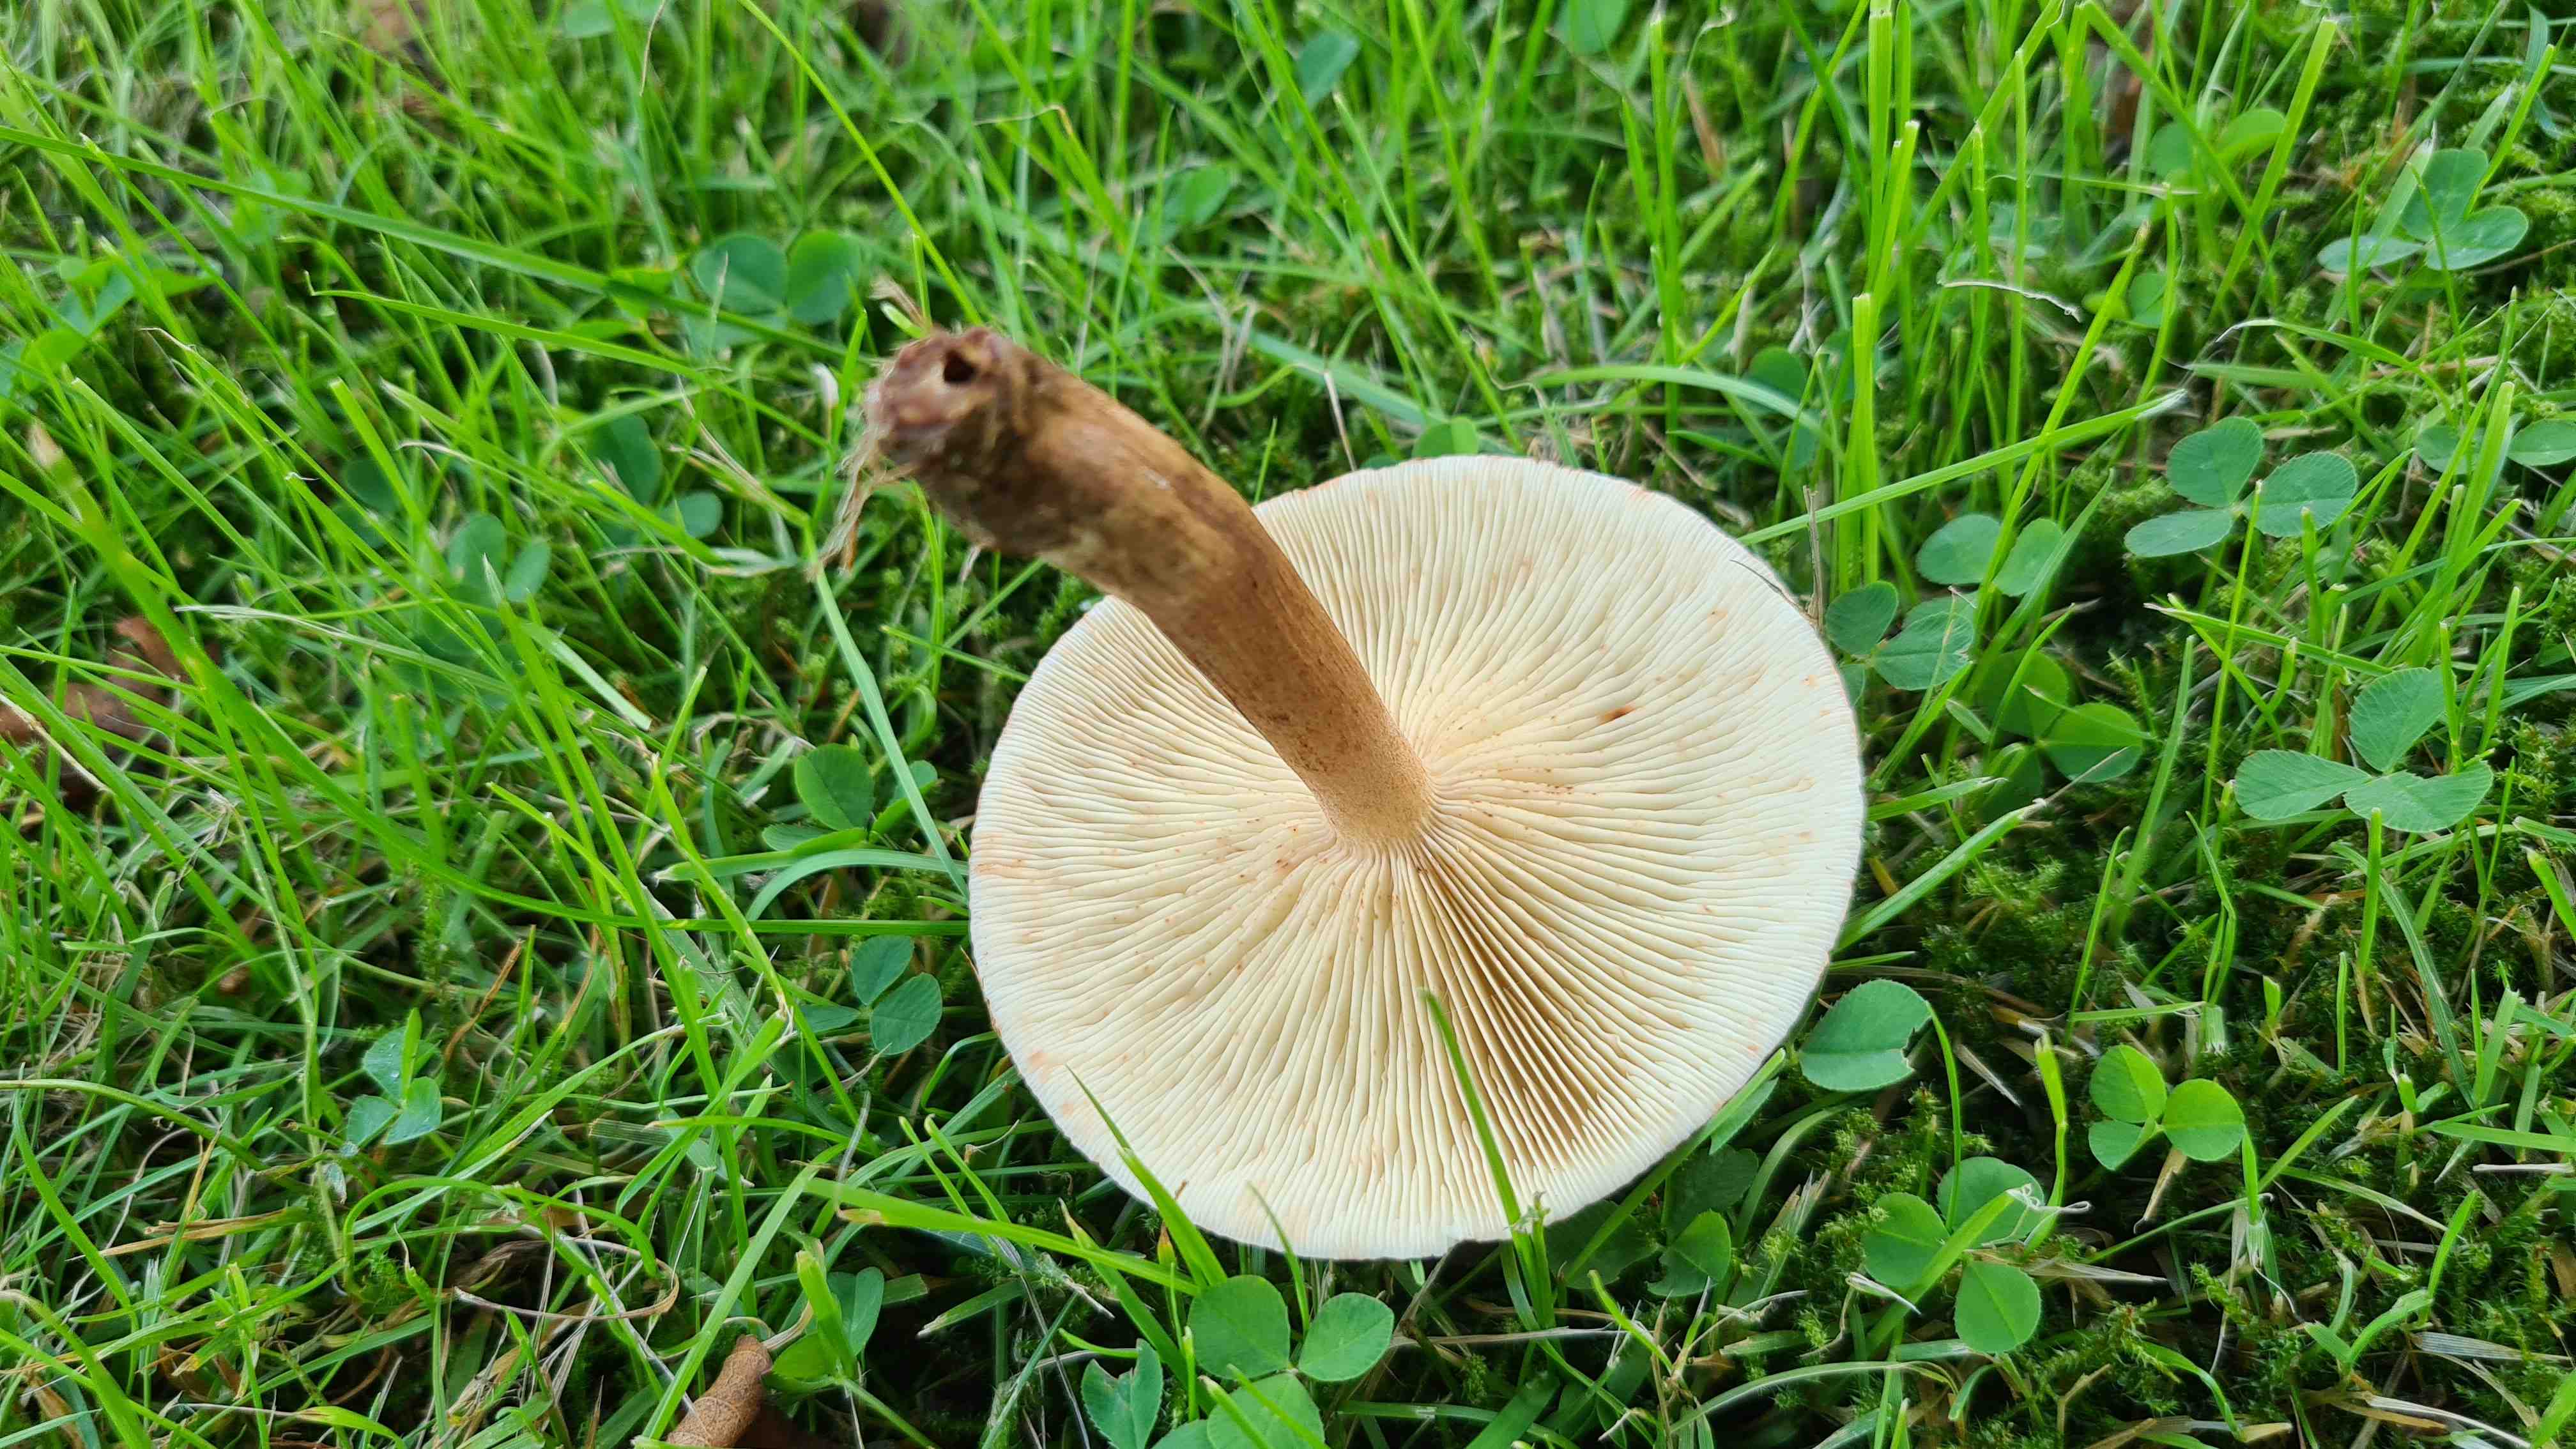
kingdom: Fungi
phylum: Basidiomycota
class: Agaricomycetes
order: Agaricales
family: Tricholomataceae
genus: Tricholoma
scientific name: Tricholoma fulvum
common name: birke-ridderhat
